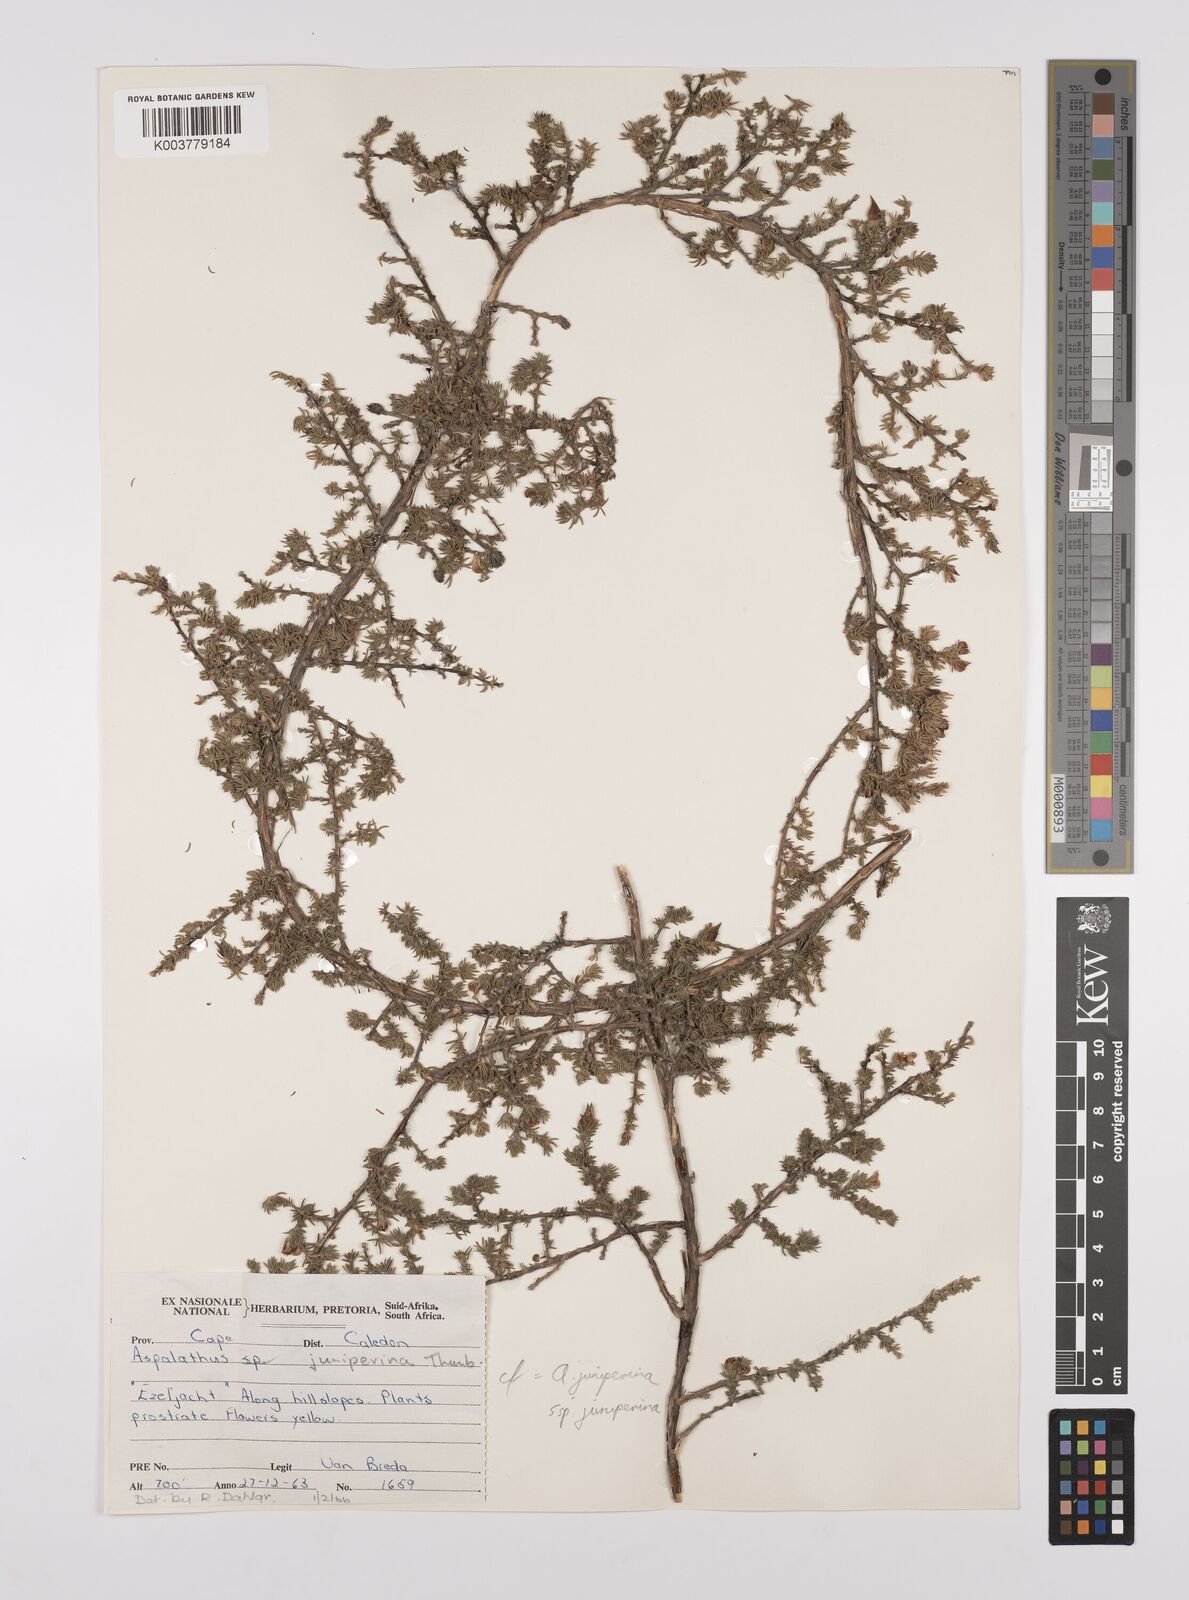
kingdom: Plantae
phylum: Tracheophyta
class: Magnoliopsida
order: Fabales
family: Fabaceae
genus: Aspalathus
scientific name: Aspalathus juniperina
